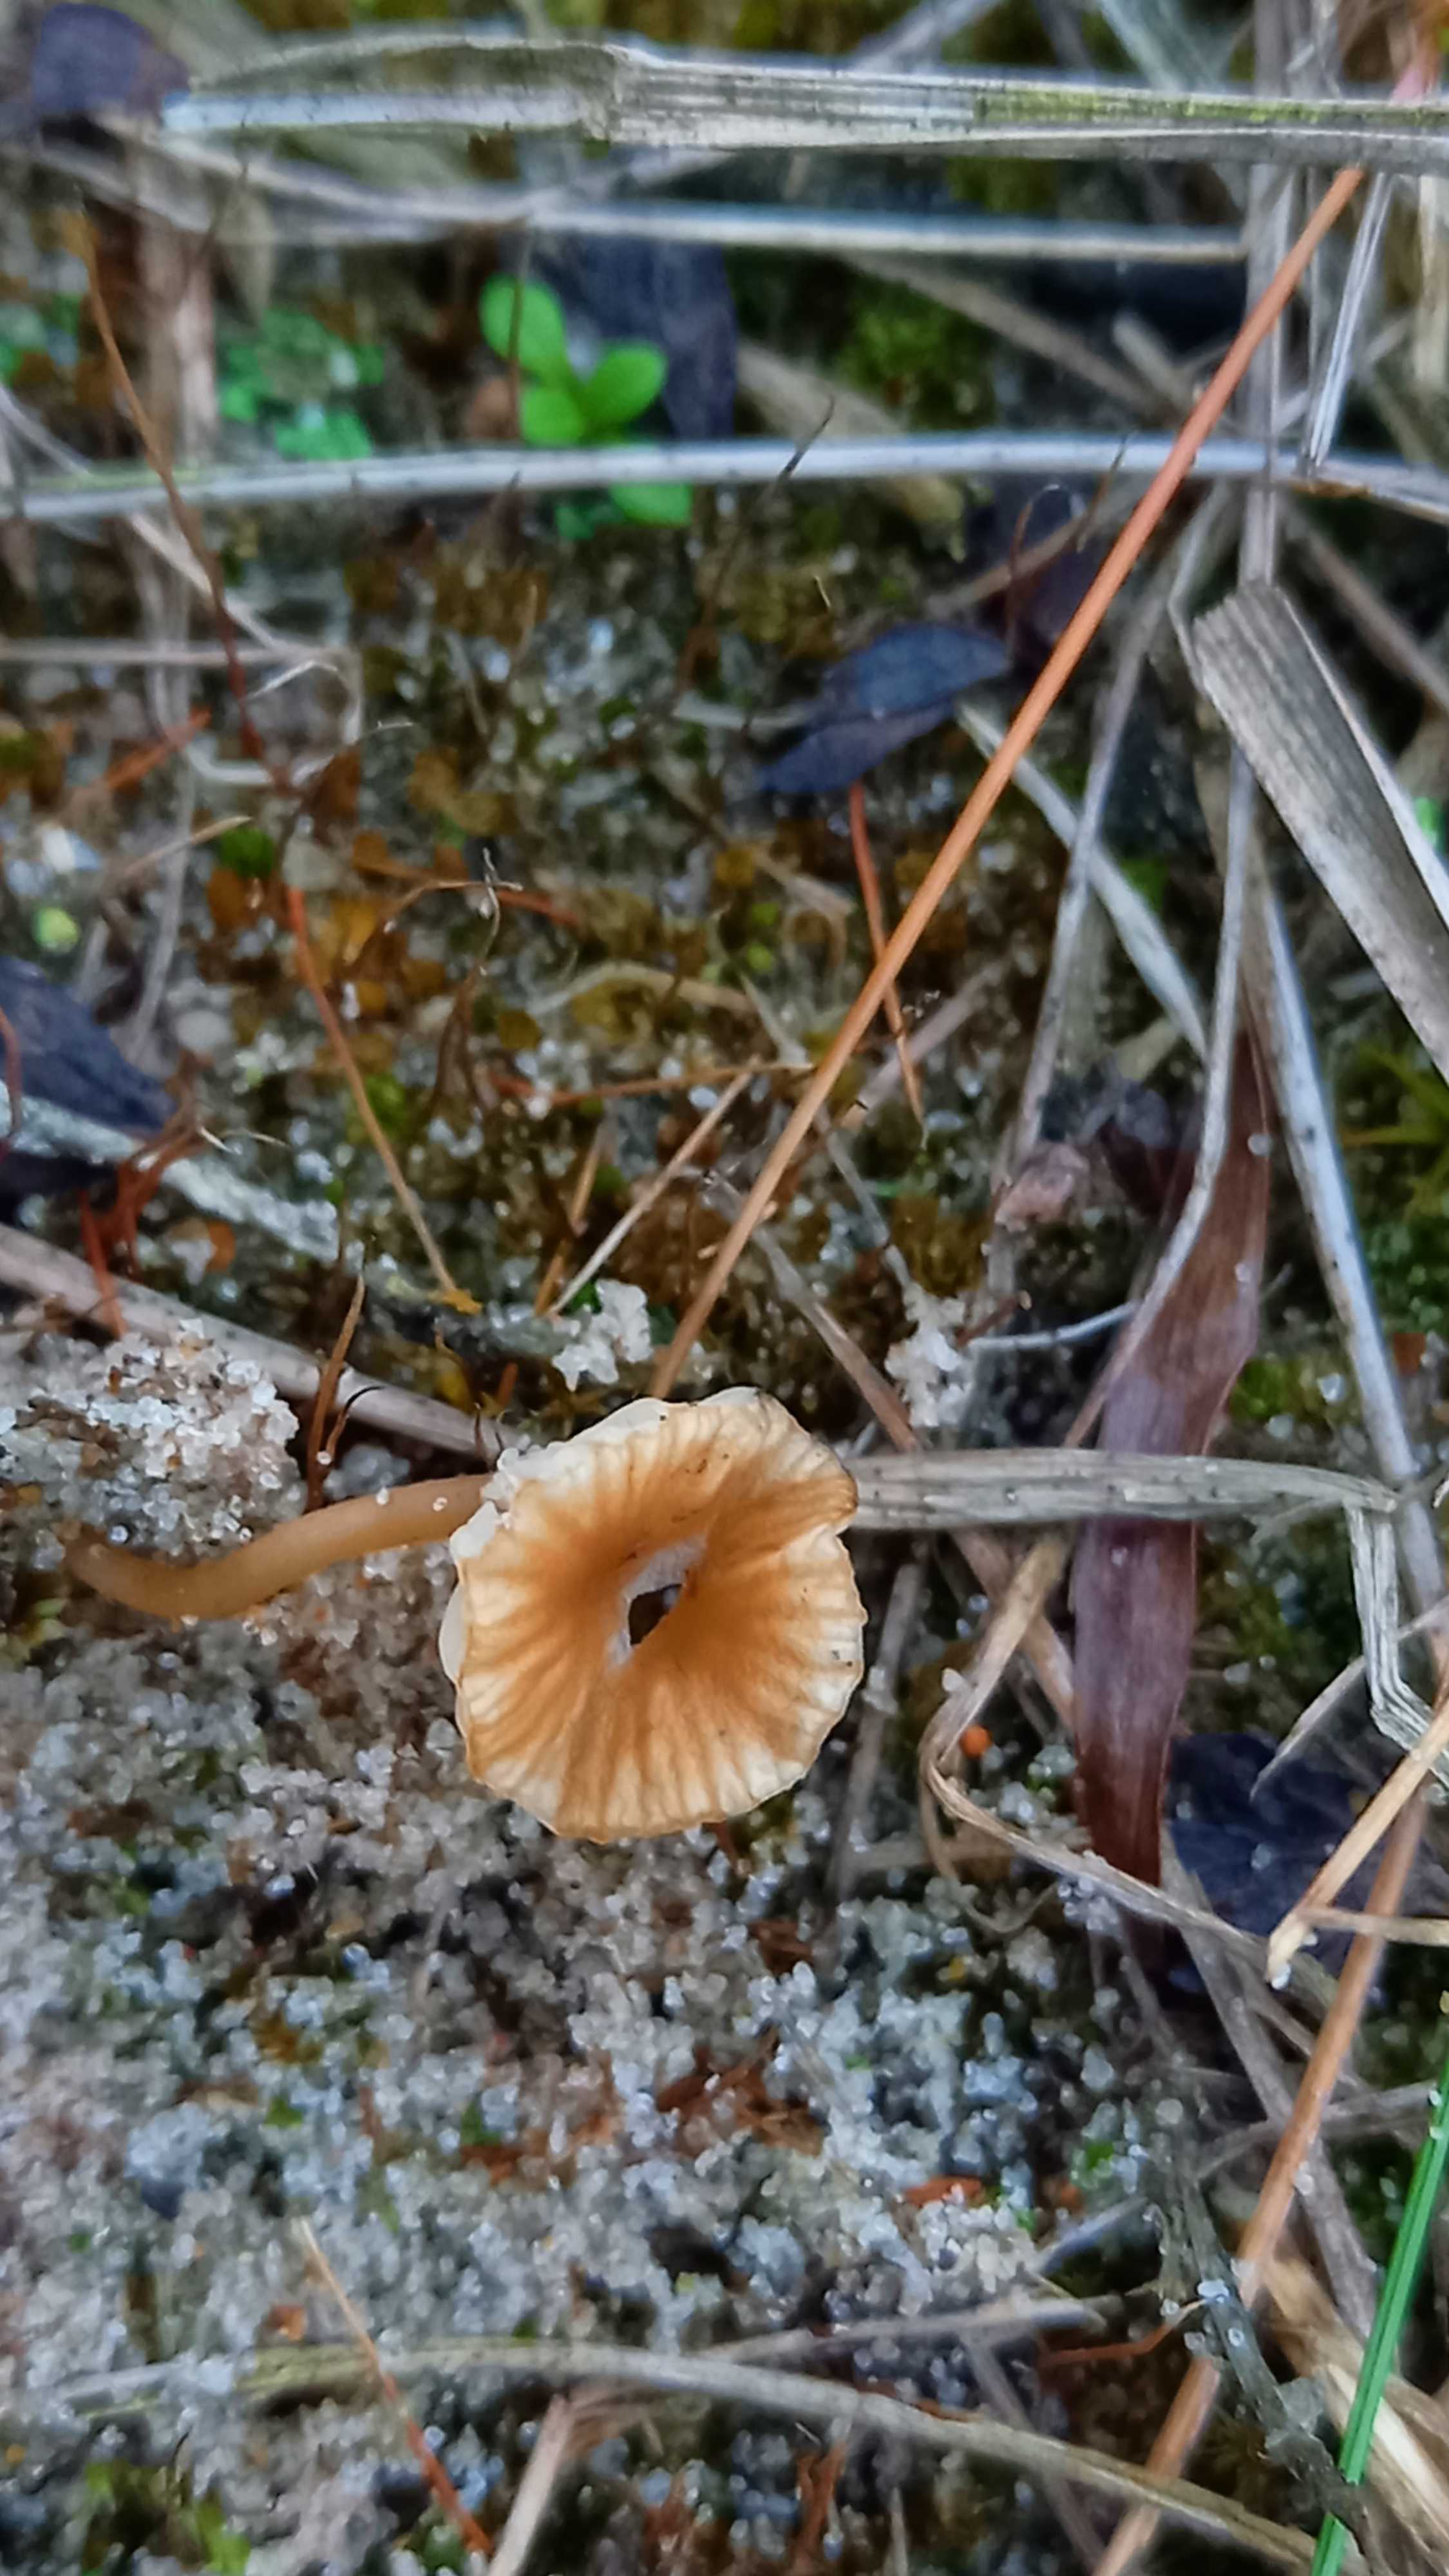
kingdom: Fungi
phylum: Basidiomycota
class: Agaricomycetes
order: Agaricales
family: Tricholomataceae
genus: Omphalina
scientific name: Omphalina pyxidata
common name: rødbrun navlehat
